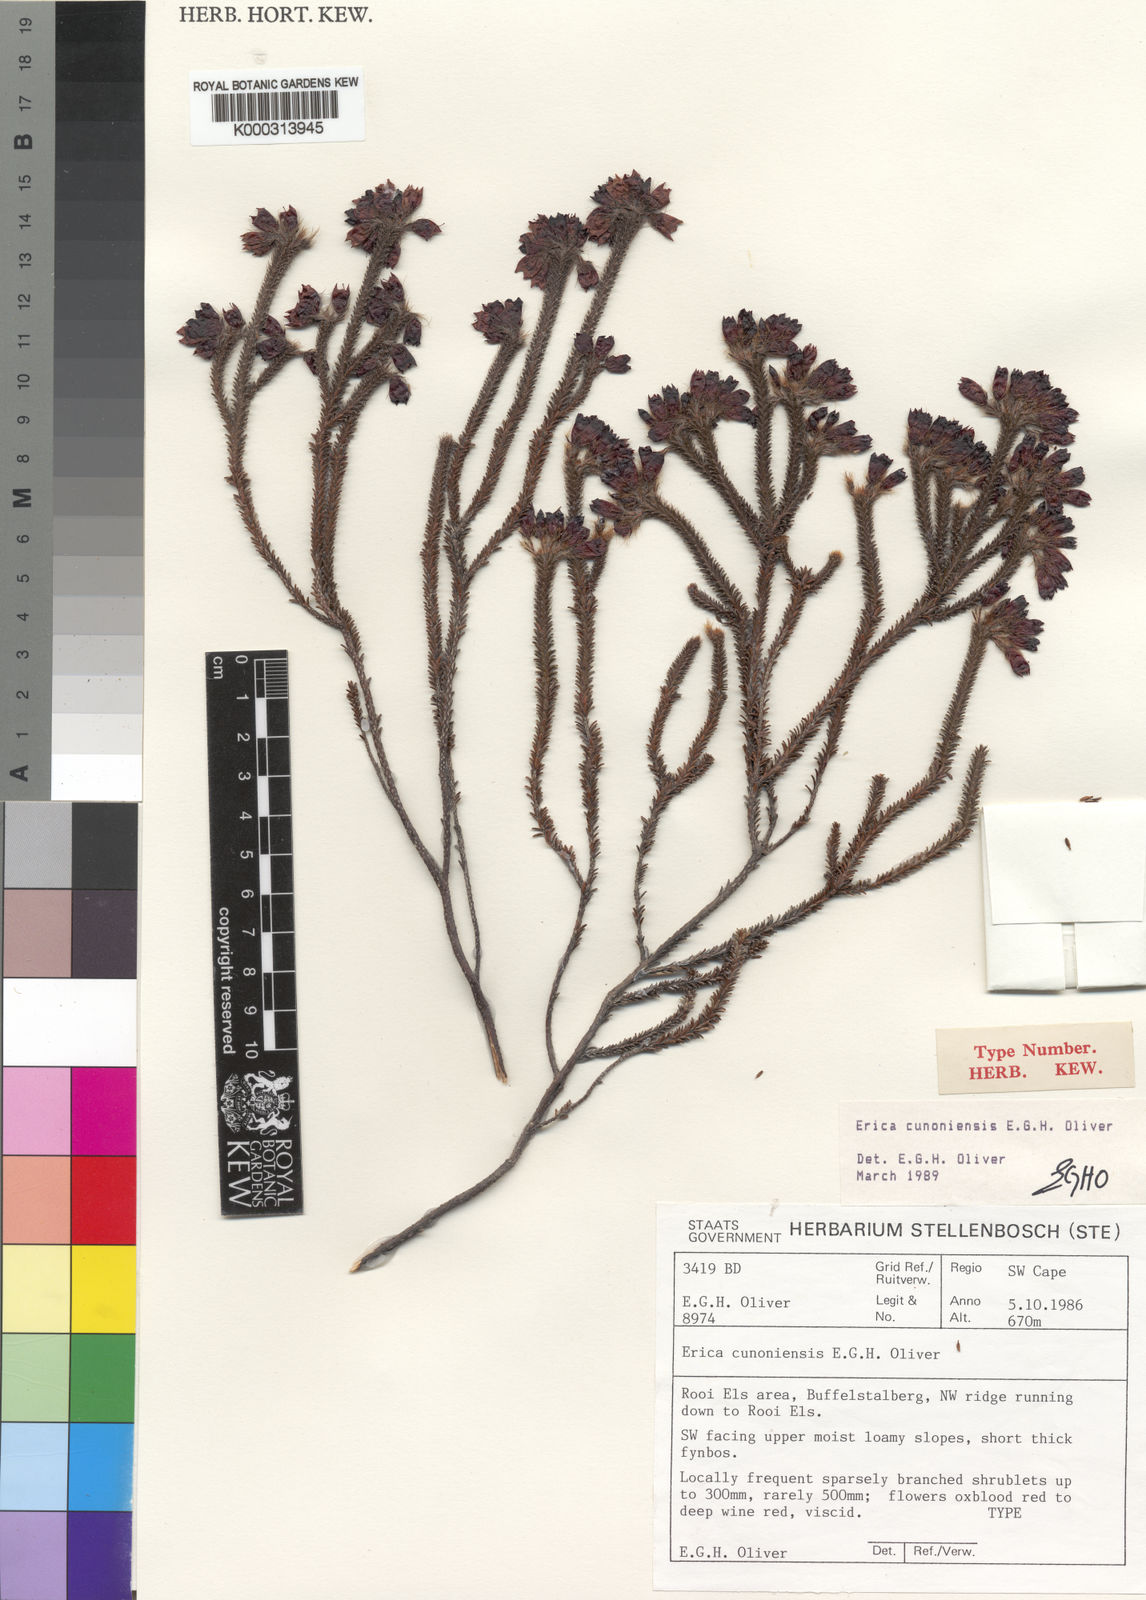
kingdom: Plantae
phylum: Tracheophyta
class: Magnoliopsida
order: Ericales
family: Ericaceae
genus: Erica
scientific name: Erica cunoniensis
